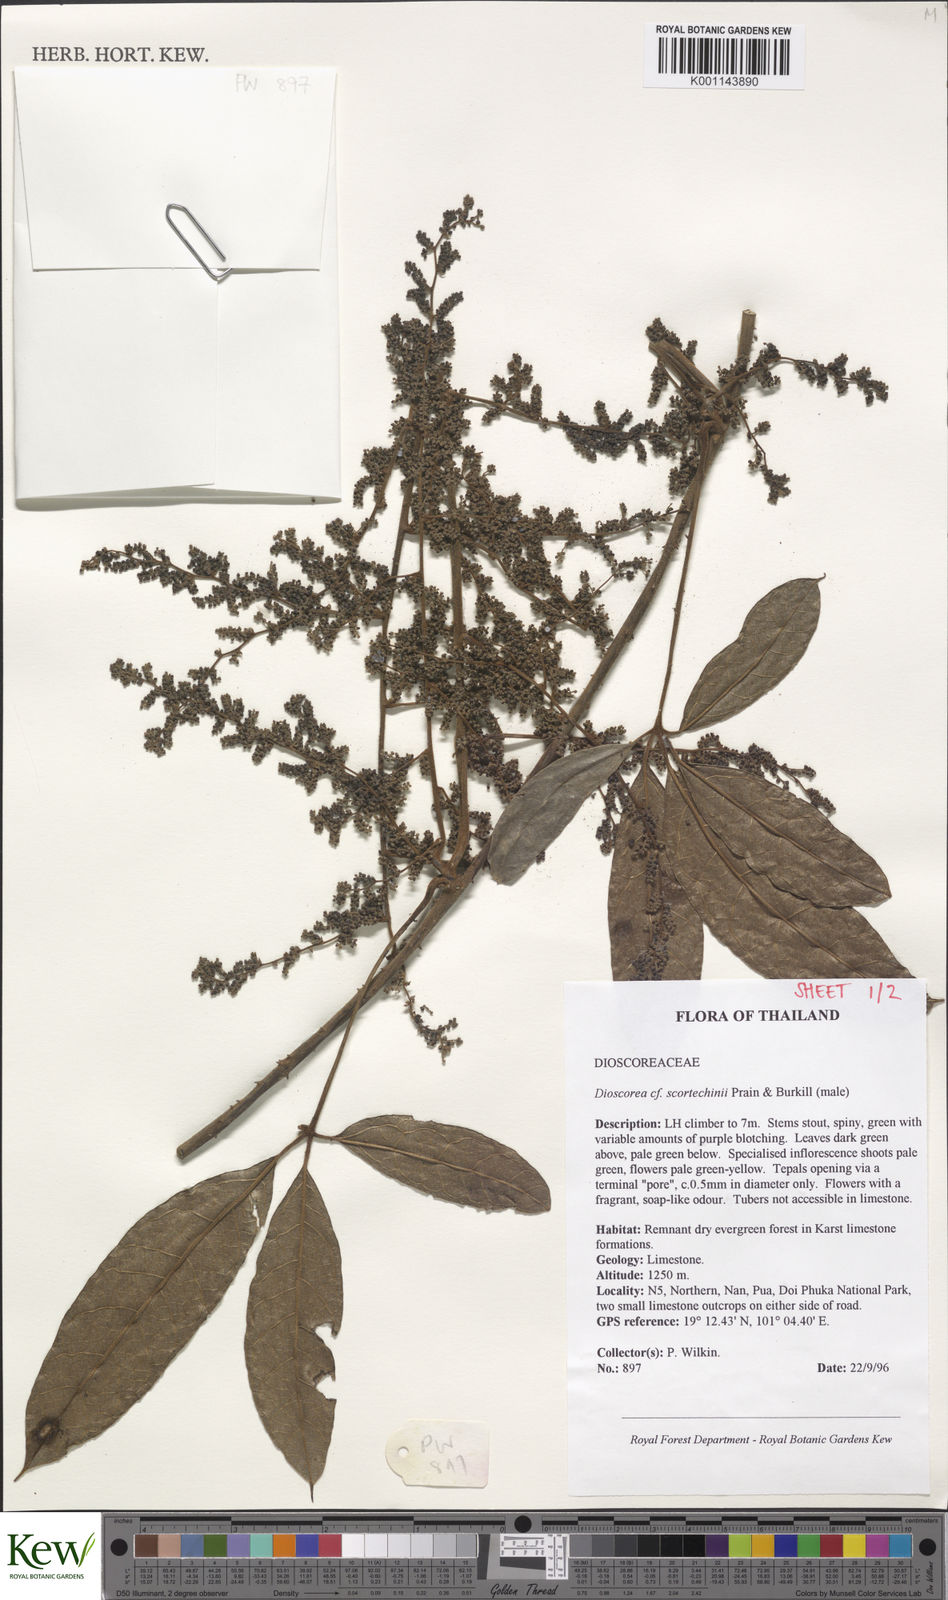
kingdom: Plantae
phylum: Tracheophyta
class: Liliopsida
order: Dioscoreales
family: Dioscoreaceae
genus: Dioscorea
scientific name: Dioscorea scortechinii
